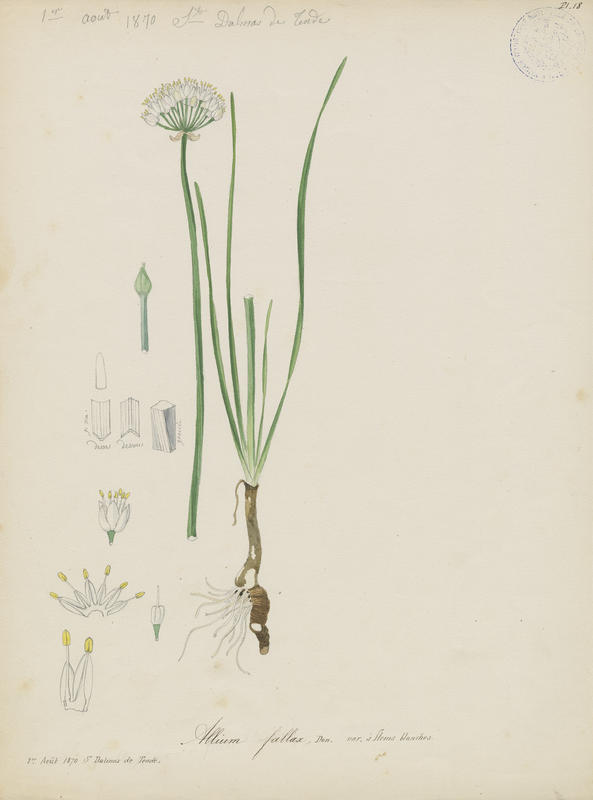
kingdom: Plantae
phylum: Tracheophyta
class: Liliopsida
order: Asparagales
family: Amaryllidaceae
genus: Allium
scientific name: Allium lusitanicum
